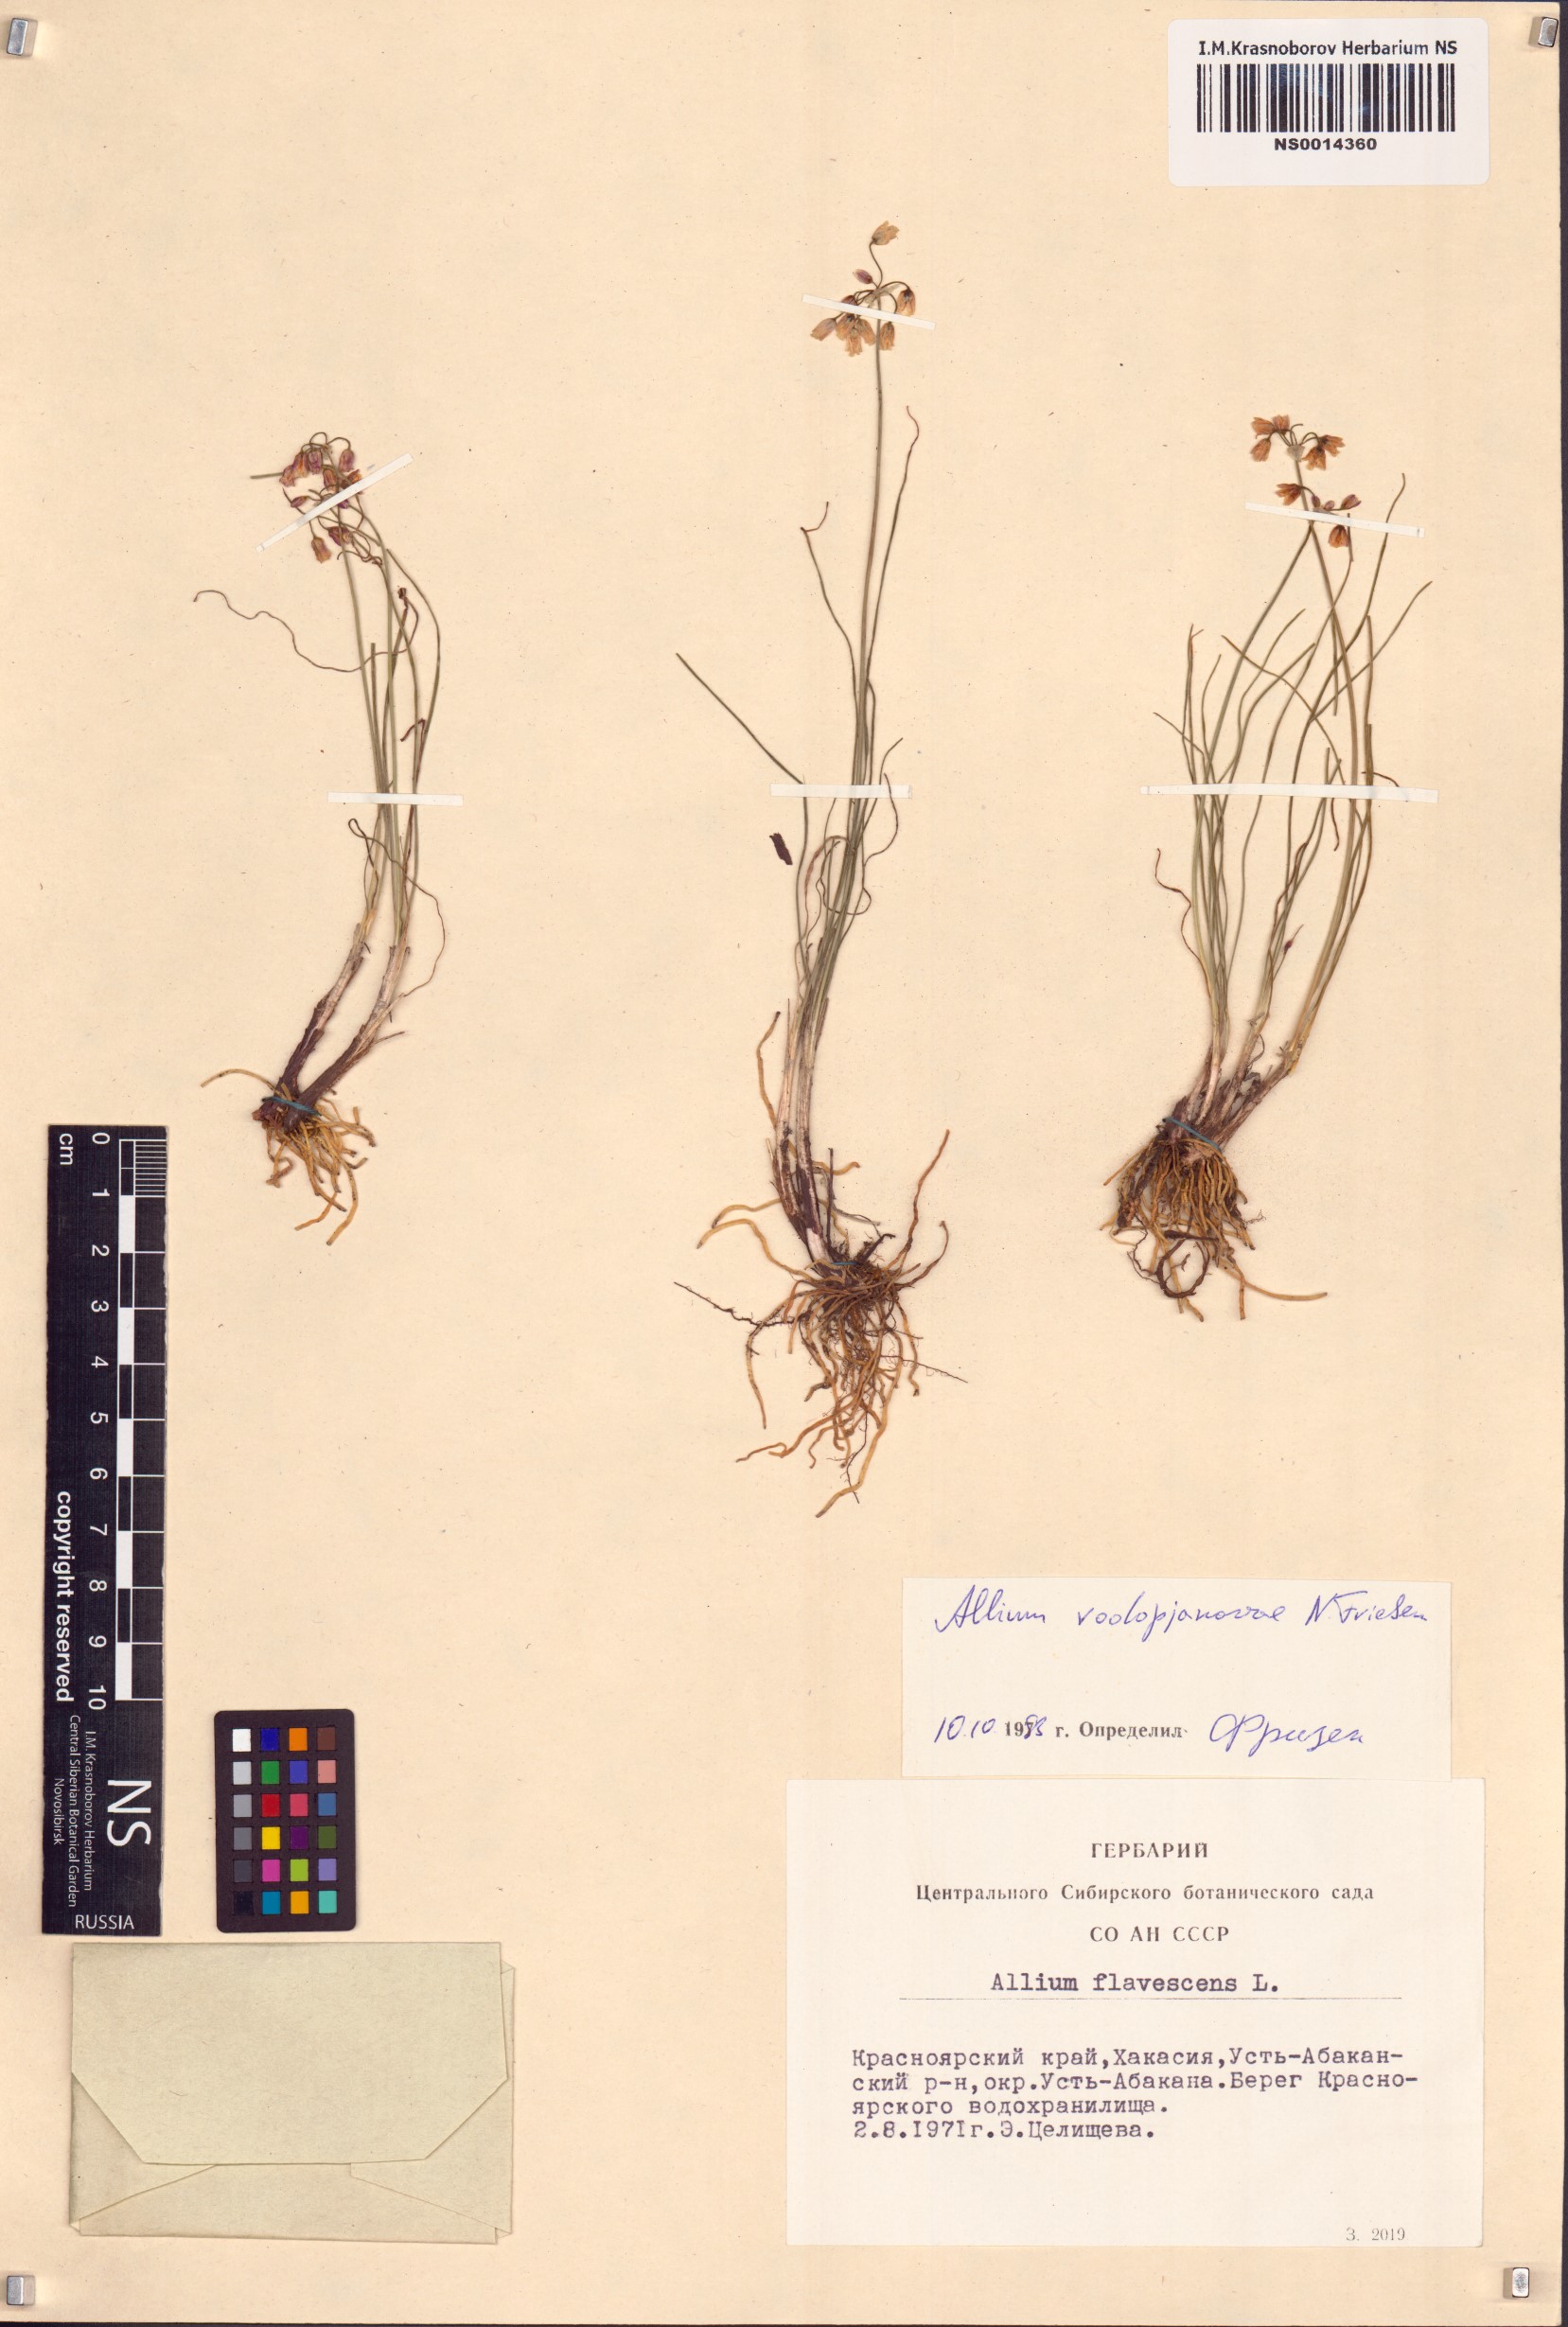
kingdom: Plantae
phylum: Tracheophyta
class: Liliopsida
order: Asparagales
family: Amaryllidaceae
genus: Allium
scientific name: Allium vodopjanovae
